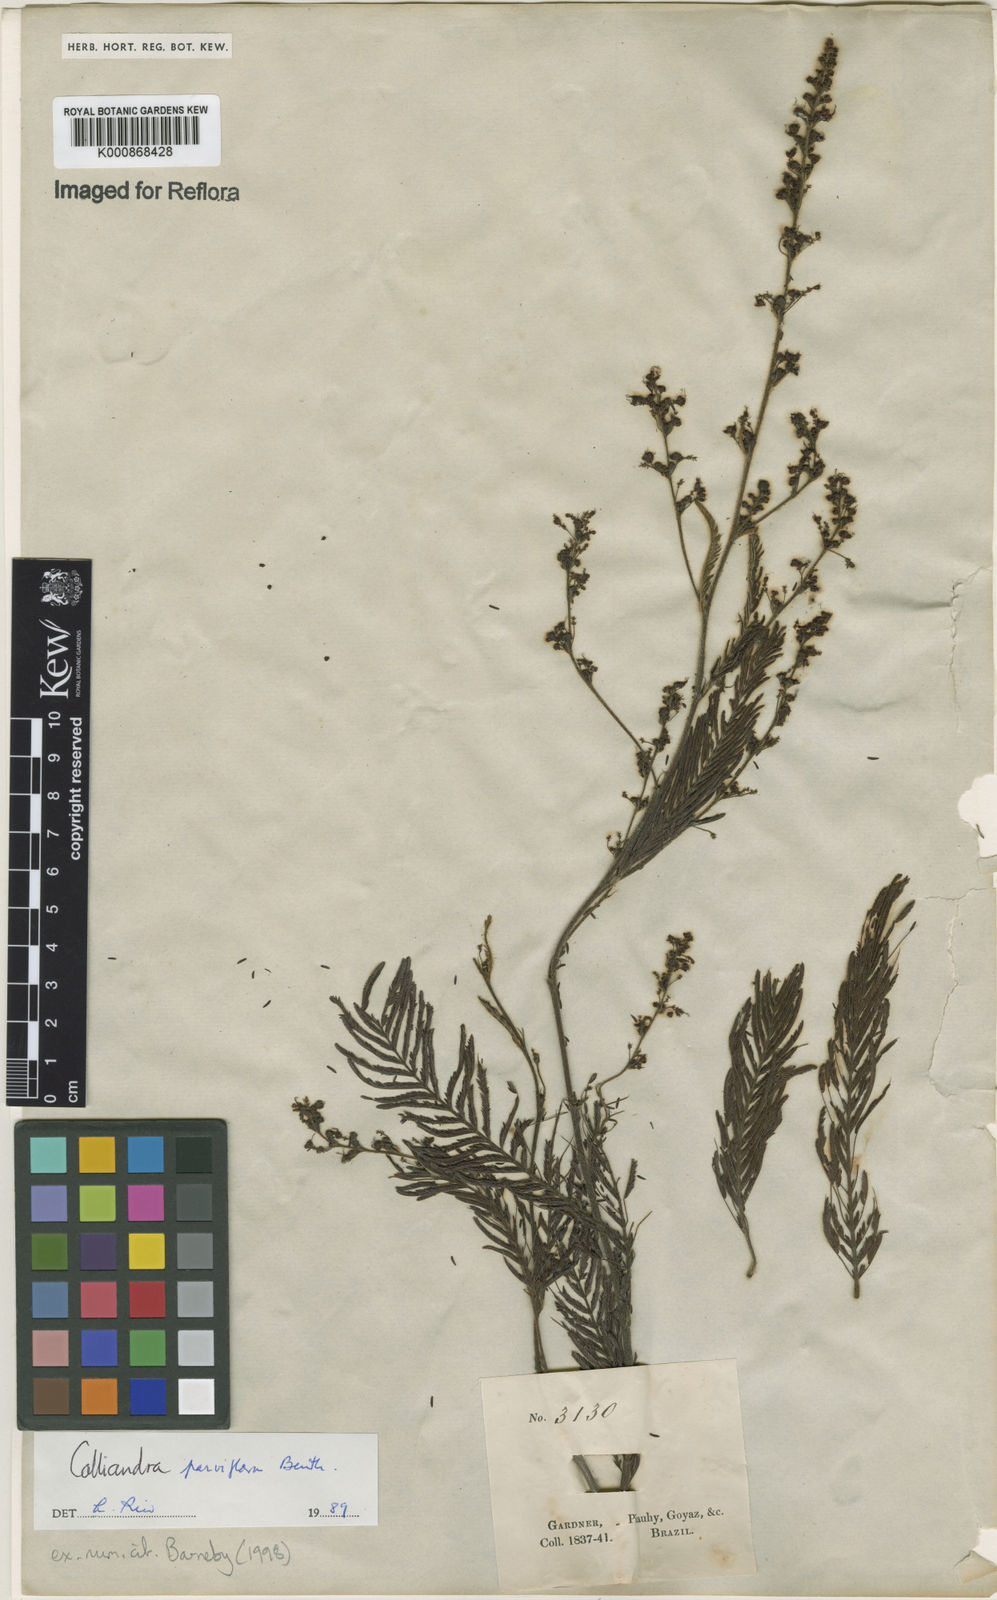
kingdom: Plantae
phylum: Tracheophyta
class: Magnoliopsida
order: Fabales
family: Fabaceae
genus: Calliandra
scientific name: Calliandra parviflora
